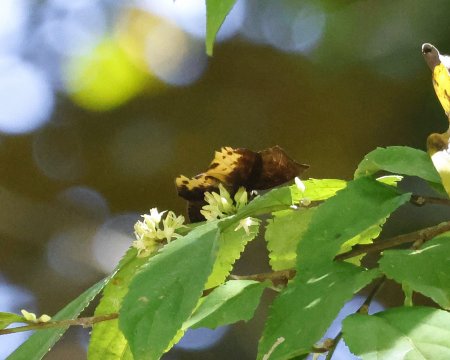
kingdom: Animalia
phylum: Arthropoda
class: Insecta
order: Lepidoptera
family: Hesperiidae
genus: Achlyodes
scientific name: Achlyodes busirus
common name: Giant Sicklewing
